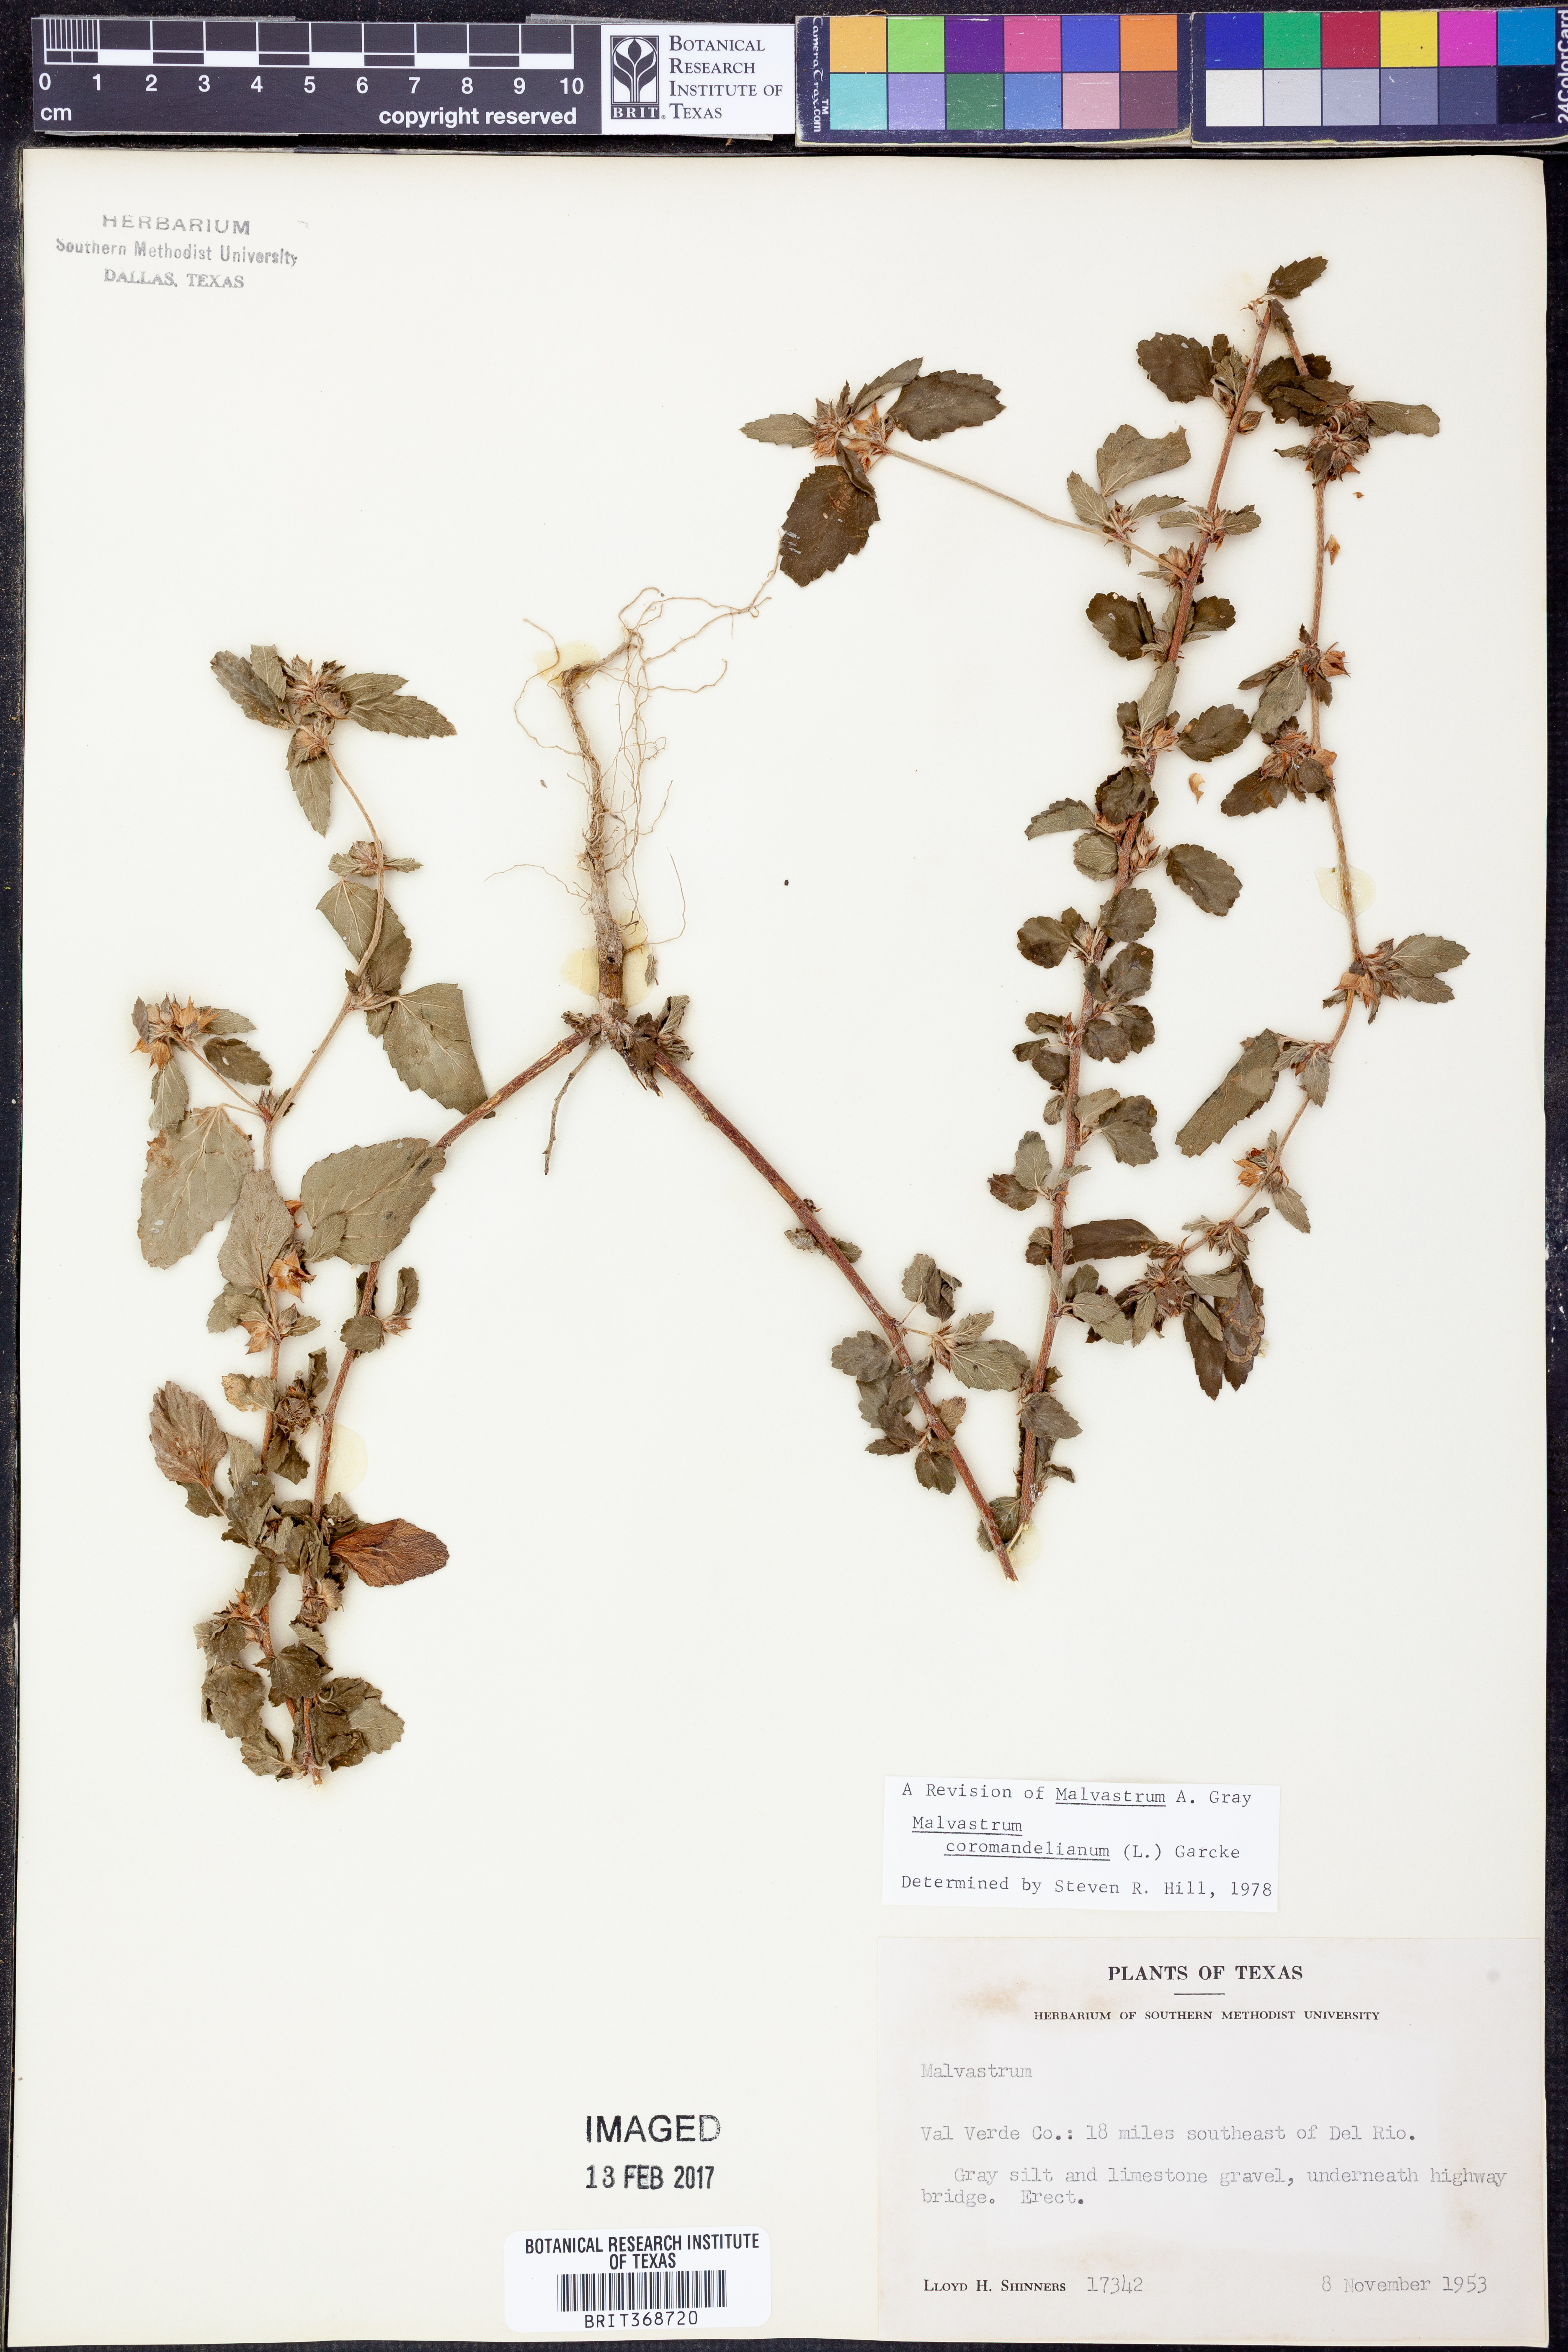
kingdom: Plantae
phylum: Tracheophyta
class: Magnoliopsida
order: Malvales
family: Malvaceae
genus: Malvastrum
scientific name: Malvastrum coromandelianum
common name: Threelobe false mallow
